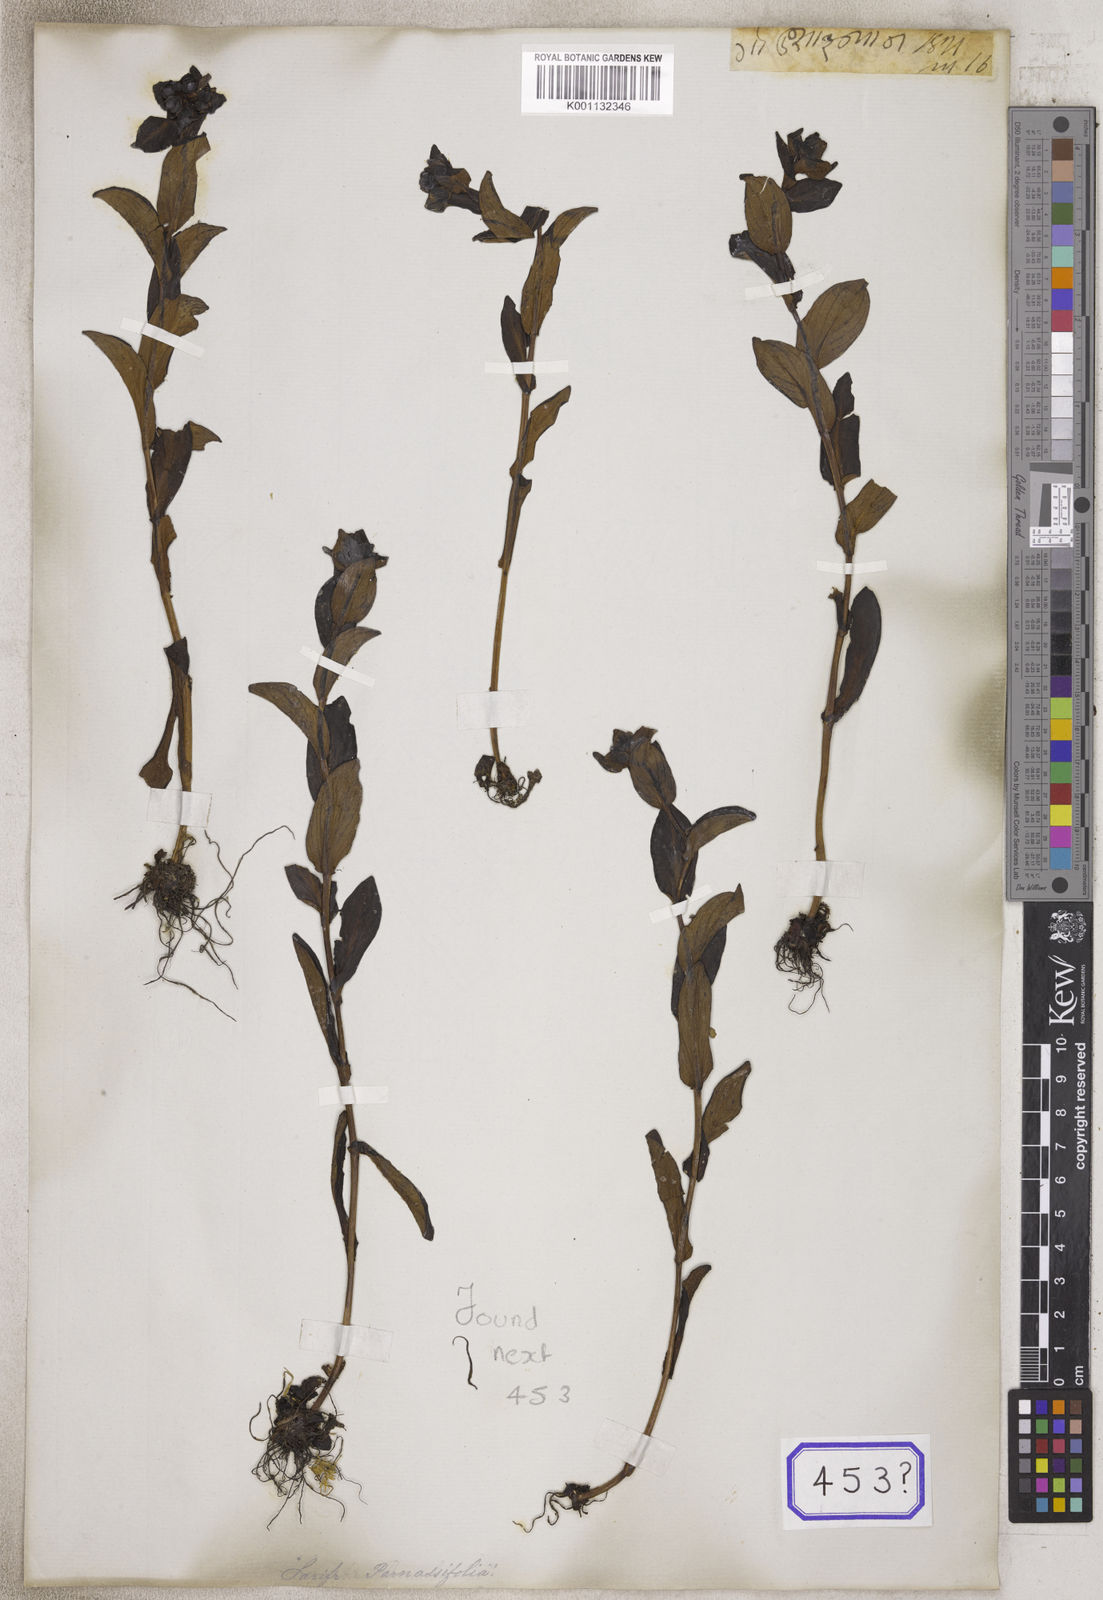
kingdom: Plantae
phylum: Tracheophyta
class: Magnoliopsida
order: Saxifragales
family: Saxifragaceae
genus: Saxifraga
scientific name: Saxifraga
